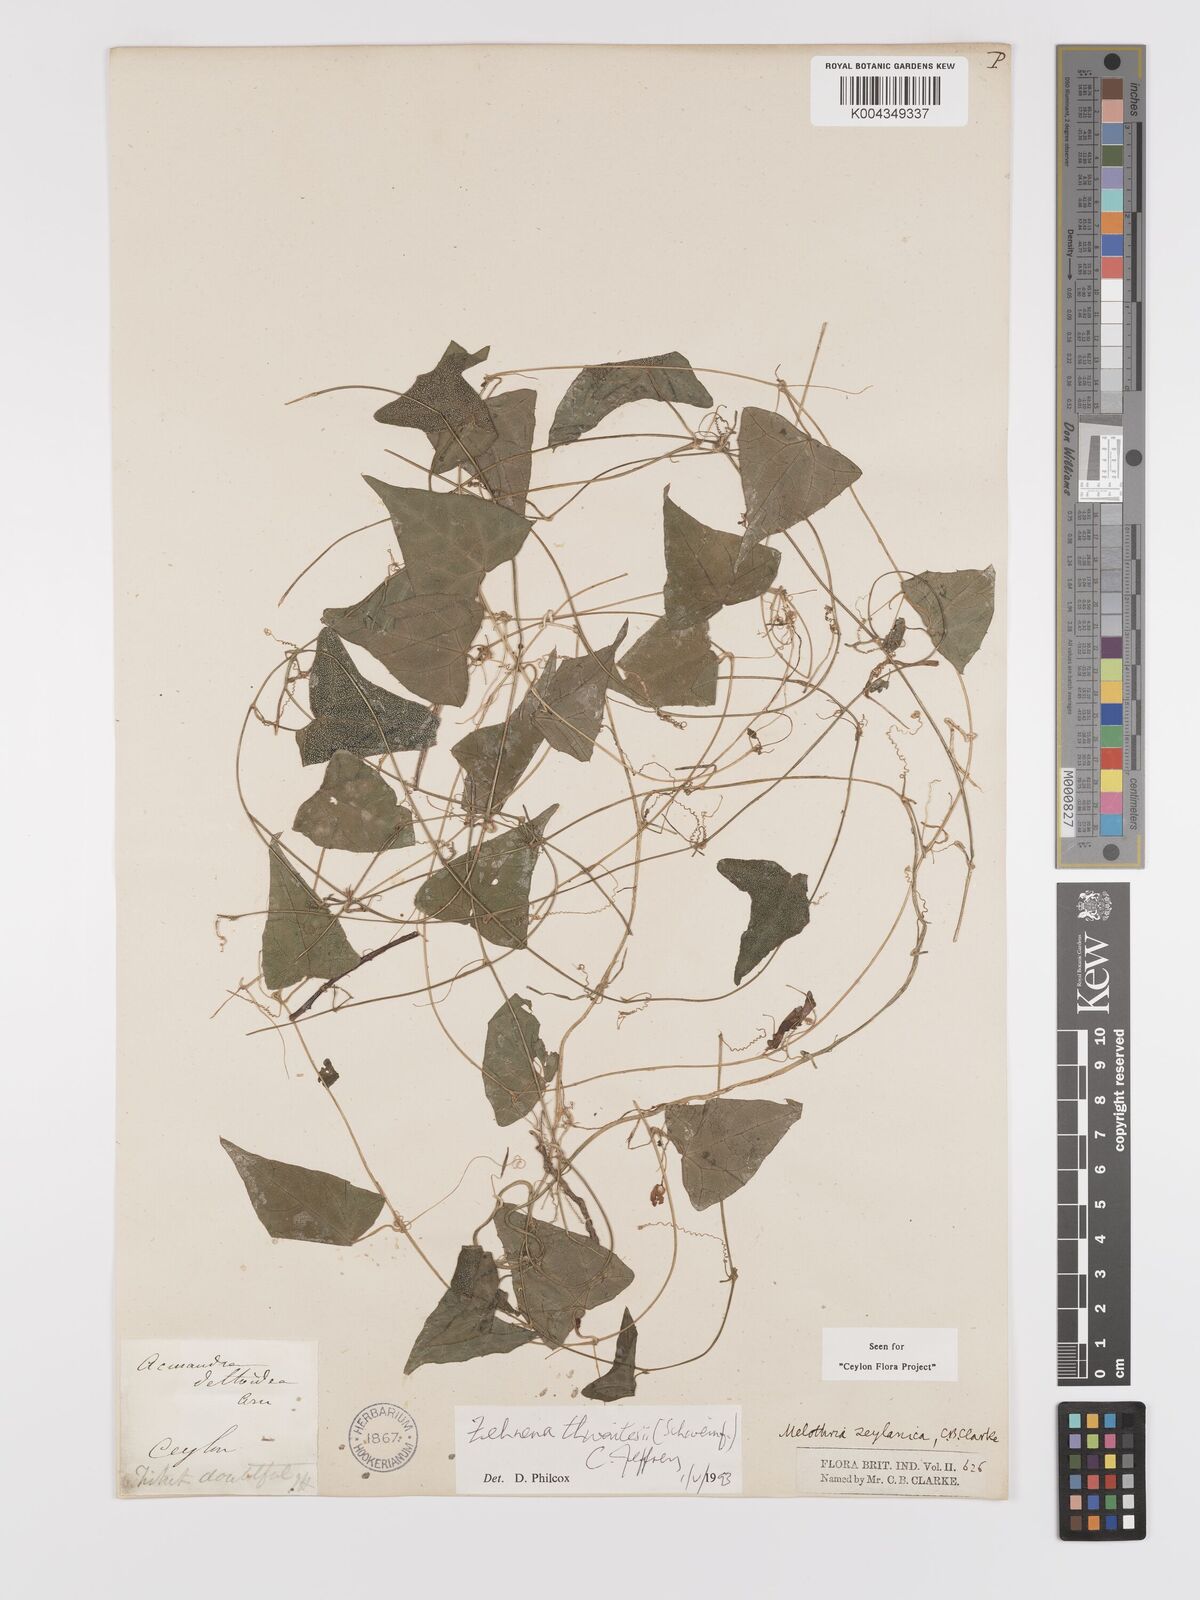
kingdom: Plantae
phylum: Tracheophyta
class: Magnoliopsida
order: Cucurbitales
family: Cucurbitaceae
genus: Zehneria
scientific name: Zehneria thwaitesii
